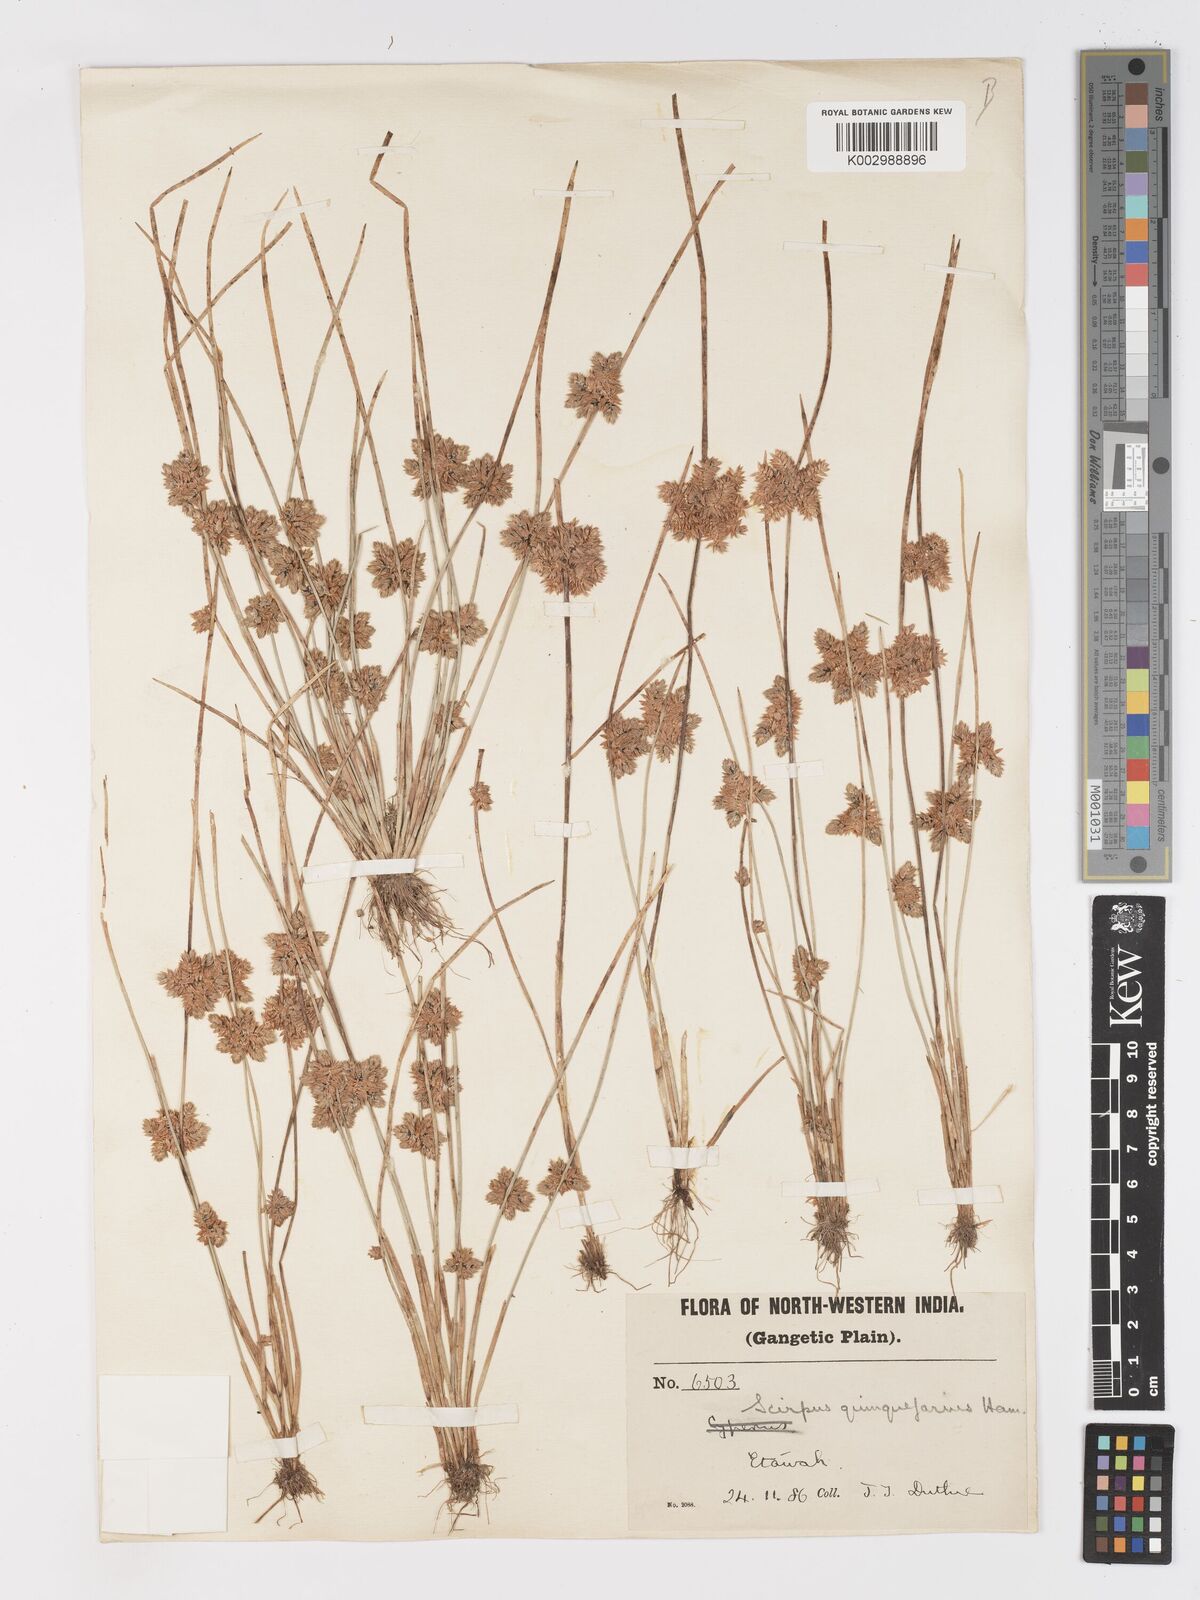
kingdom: Plantae
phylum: Tracheophyta
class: Liliopsida
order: Poales
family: Cyperaceae
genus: Schoenoplectiella
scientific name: Schoenoplectiella roylei
